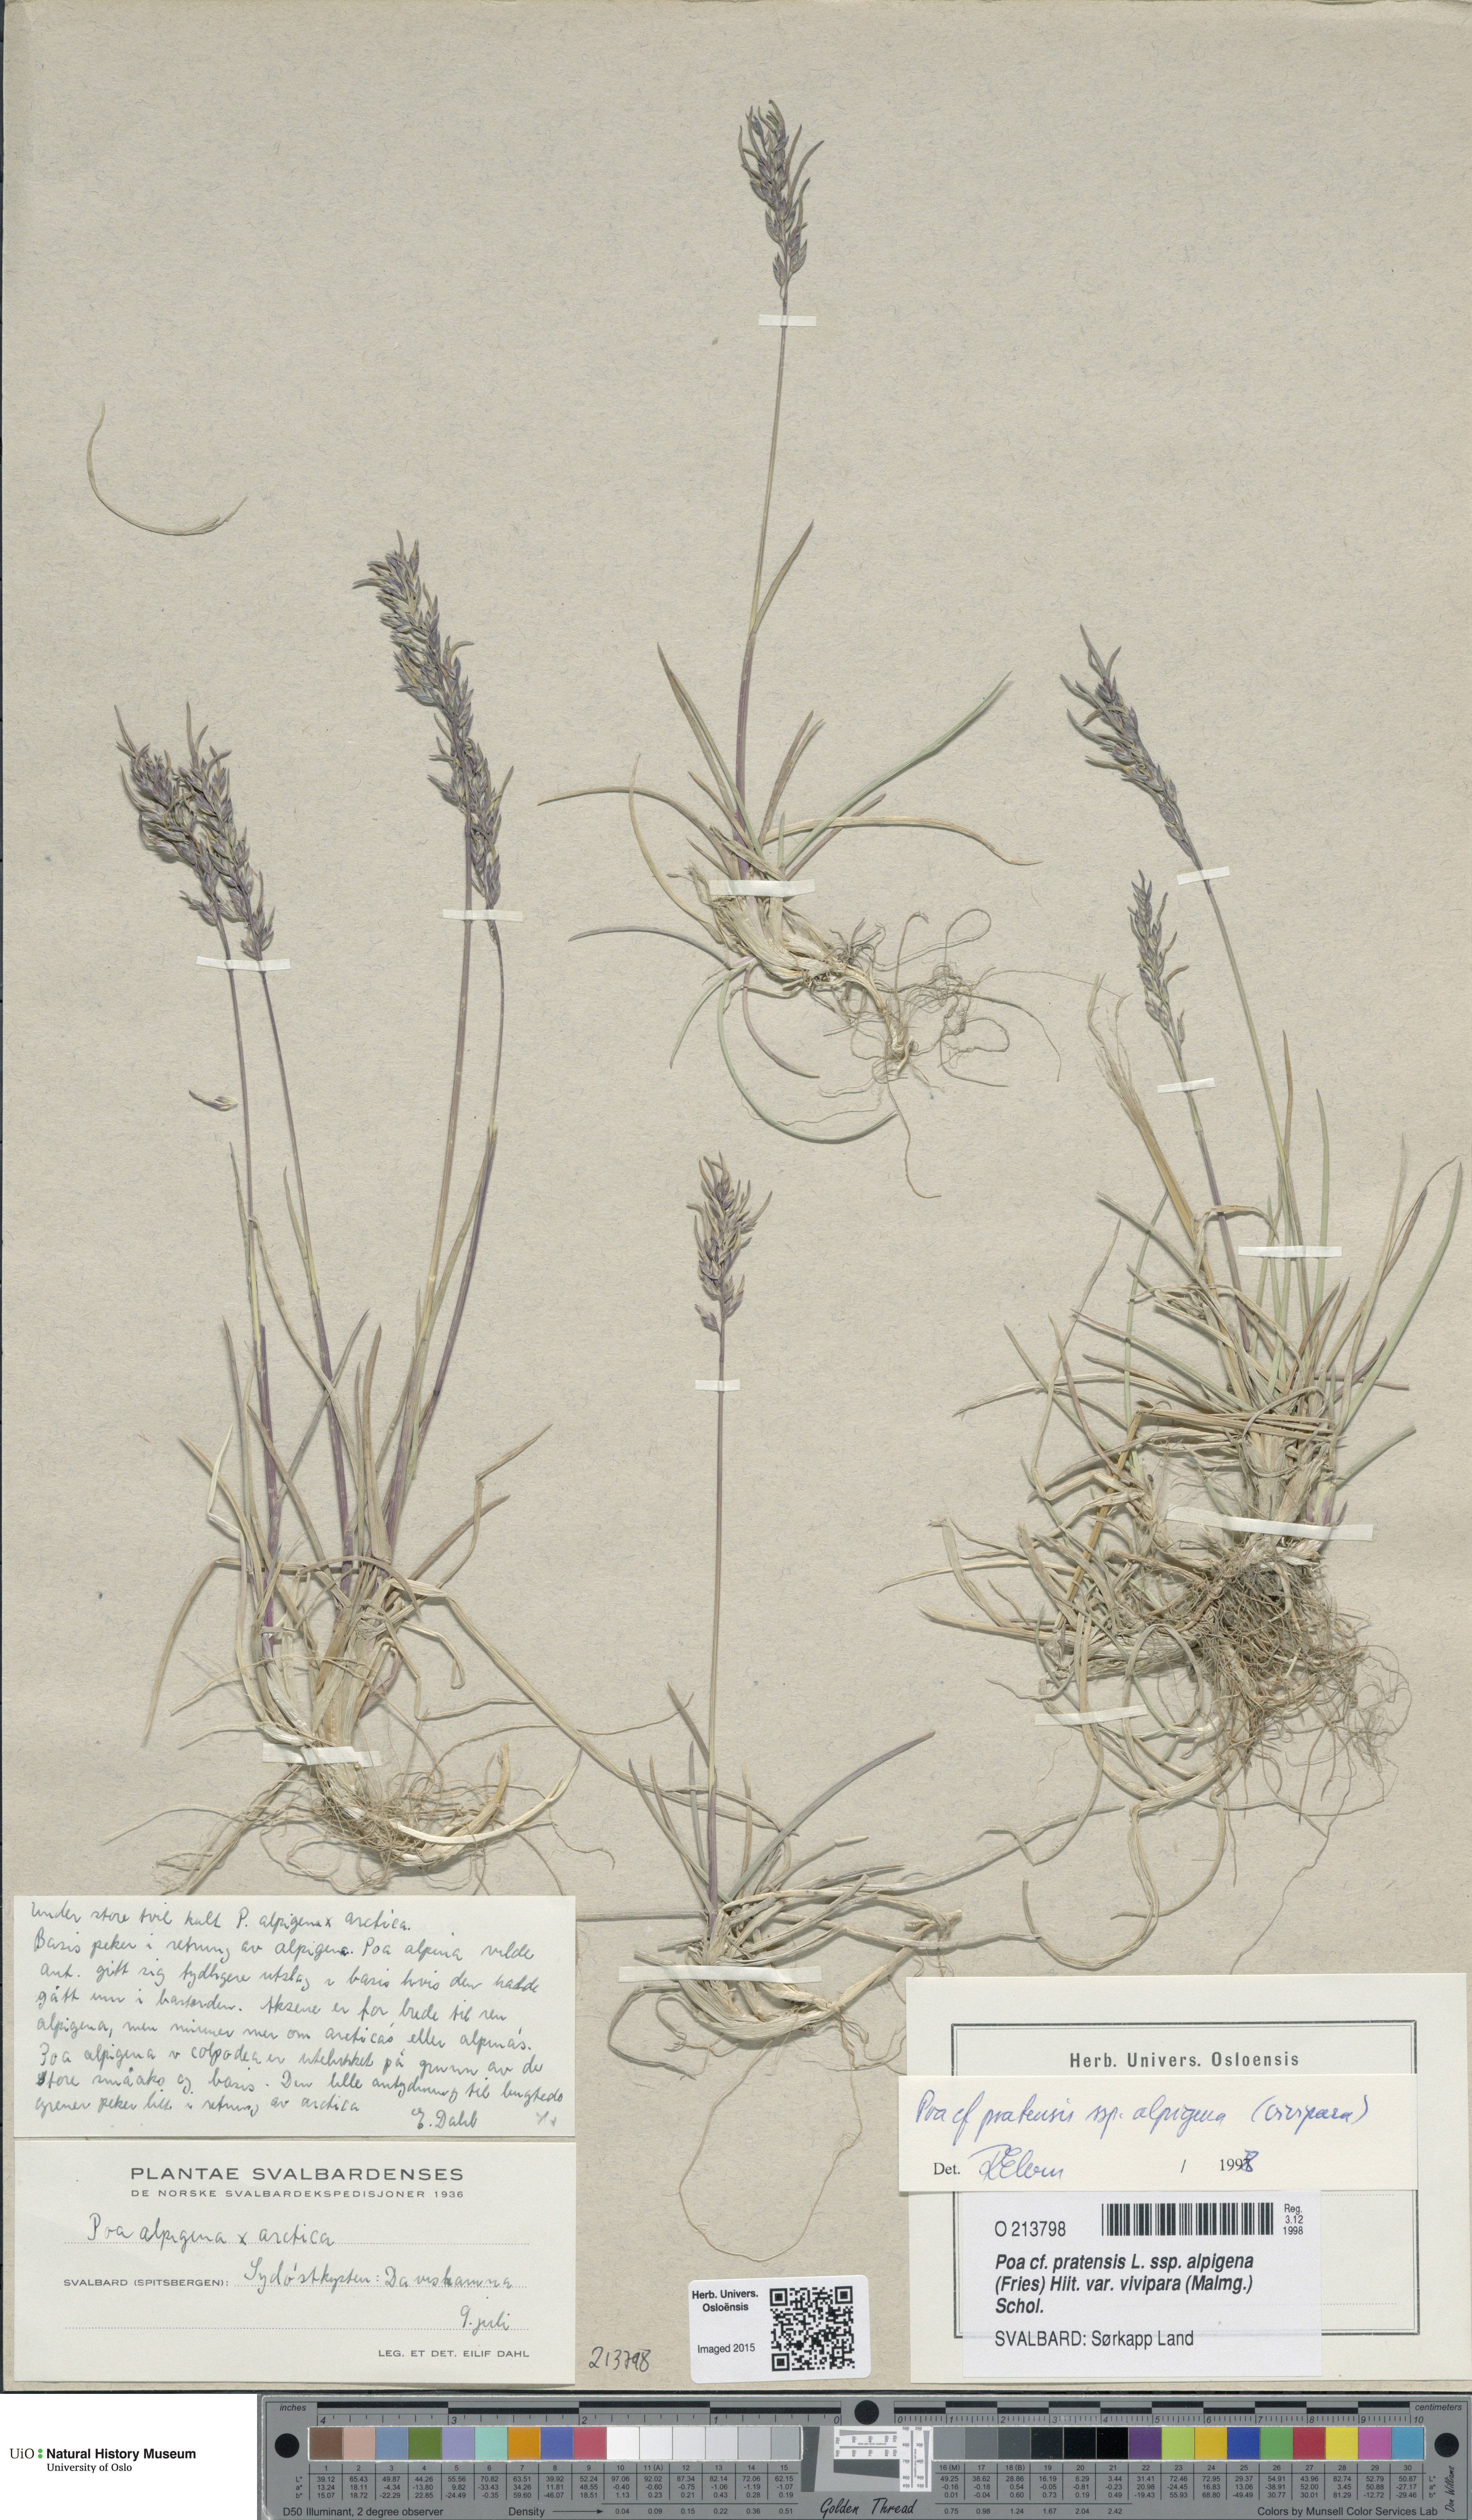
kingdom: Plantae
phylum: Tracheophyta
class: Liliopsida
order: Poales
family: Poaceae
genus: Poa
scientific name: Poa arctica
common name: Arctic bluegrass
